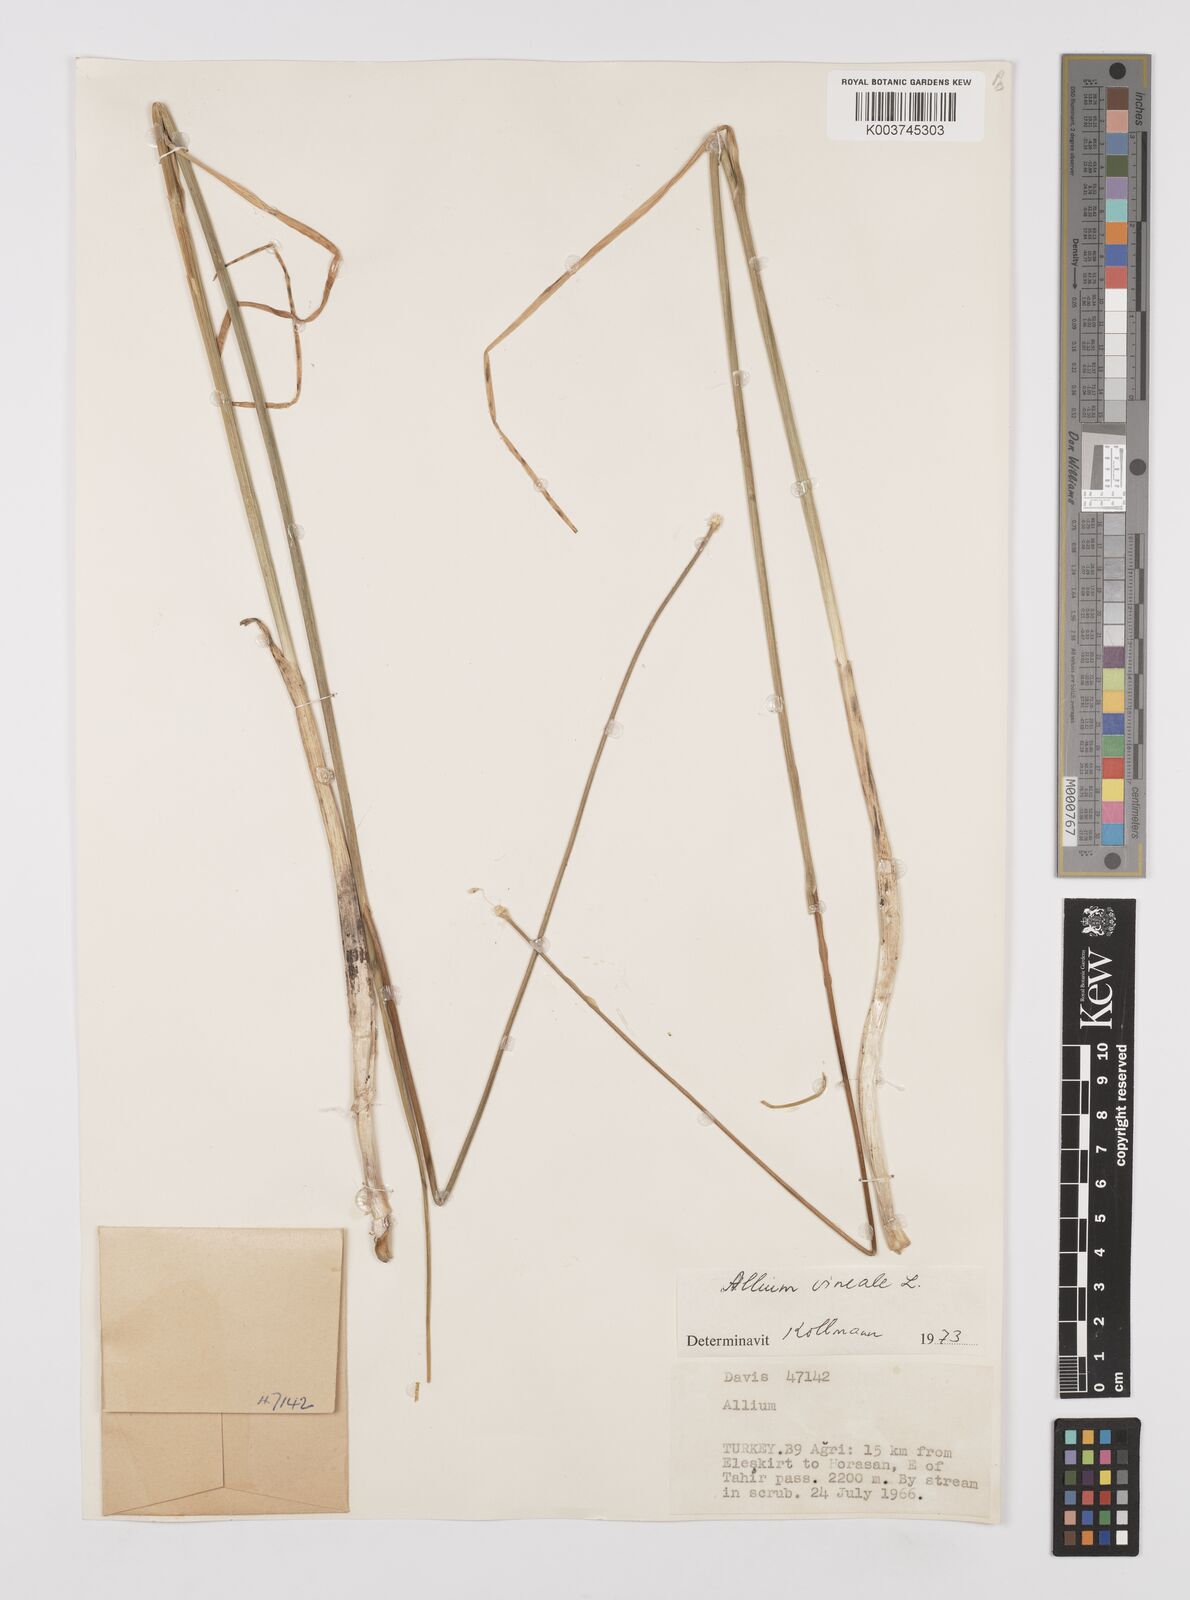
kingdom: Plantae
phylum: Tracheophyta
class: Liliopsida
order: Asparagales
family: Amaryllidaceae
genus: Allium
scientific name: Allium vineale
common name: Crow garlic
